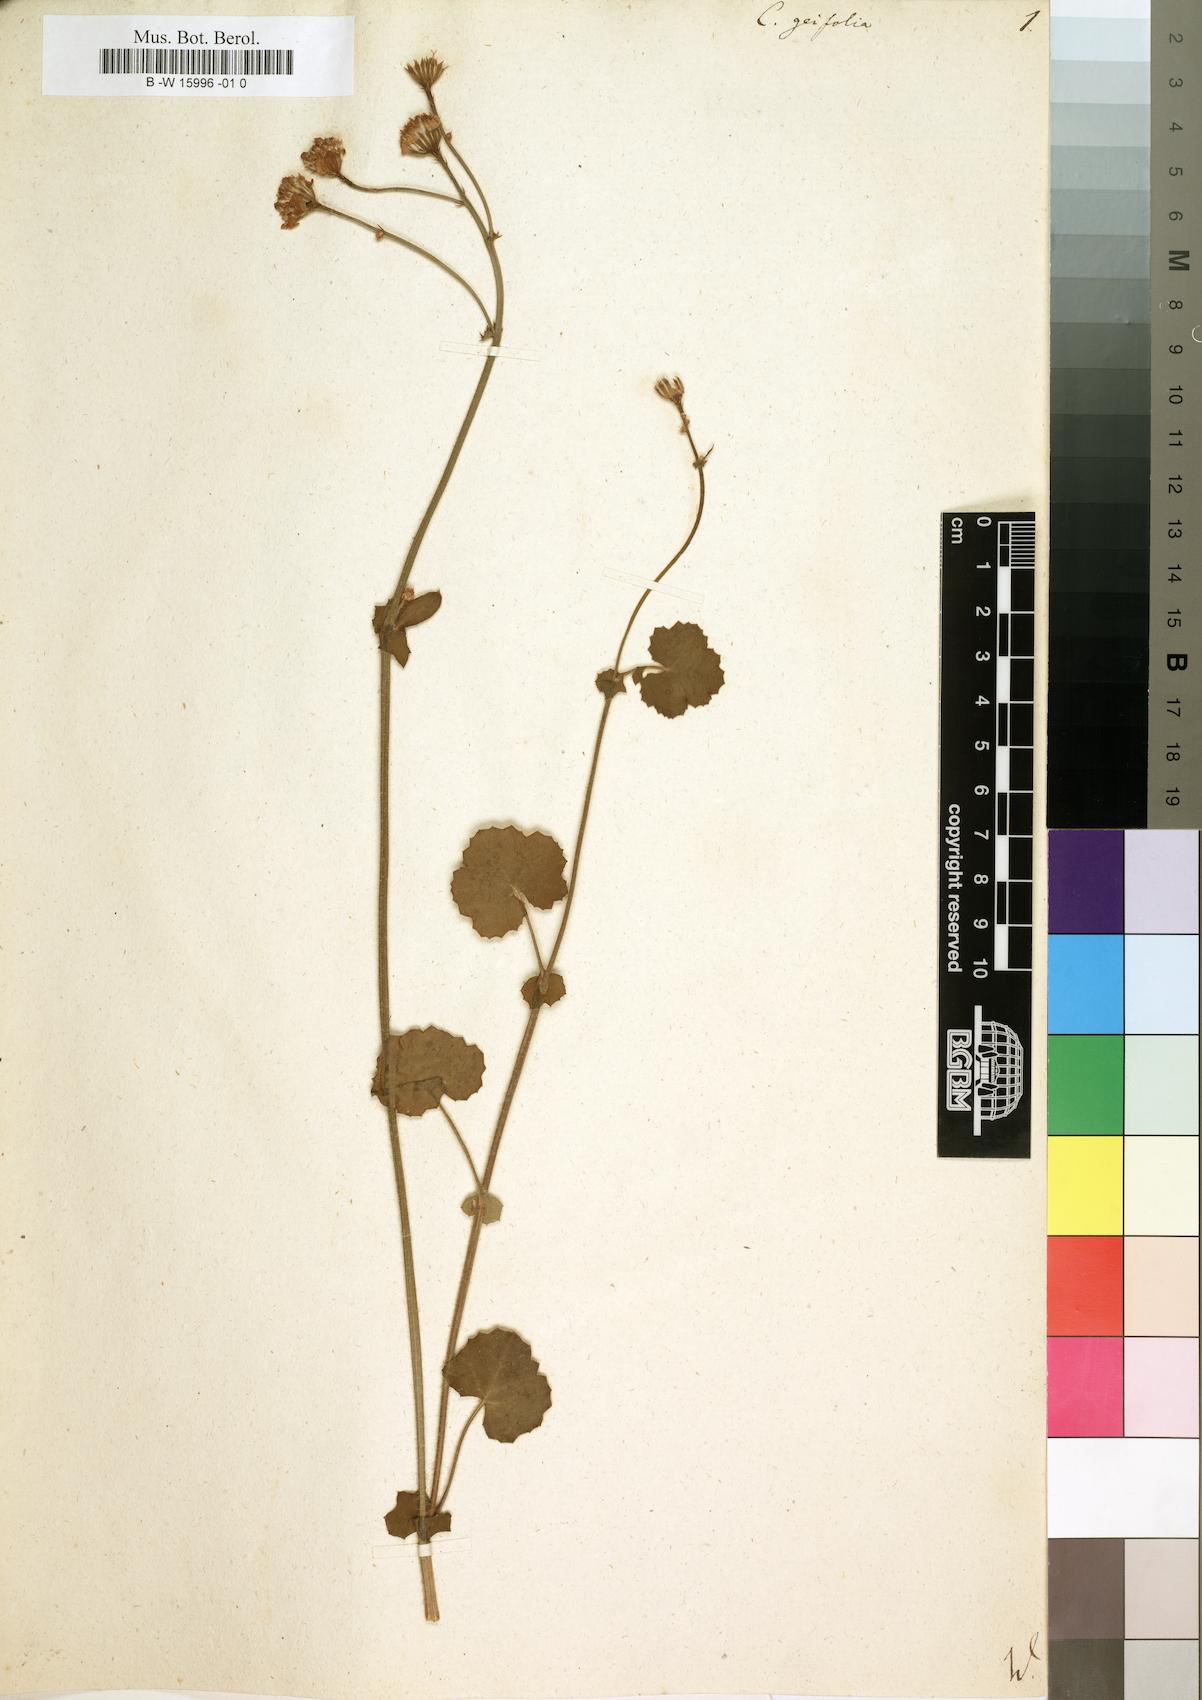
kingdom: Plantae
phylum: Tracheophyta
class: Magnoliopsida
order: Asterales
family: Asteraceae
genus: Cineraria
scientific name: Cineraria geifolia
